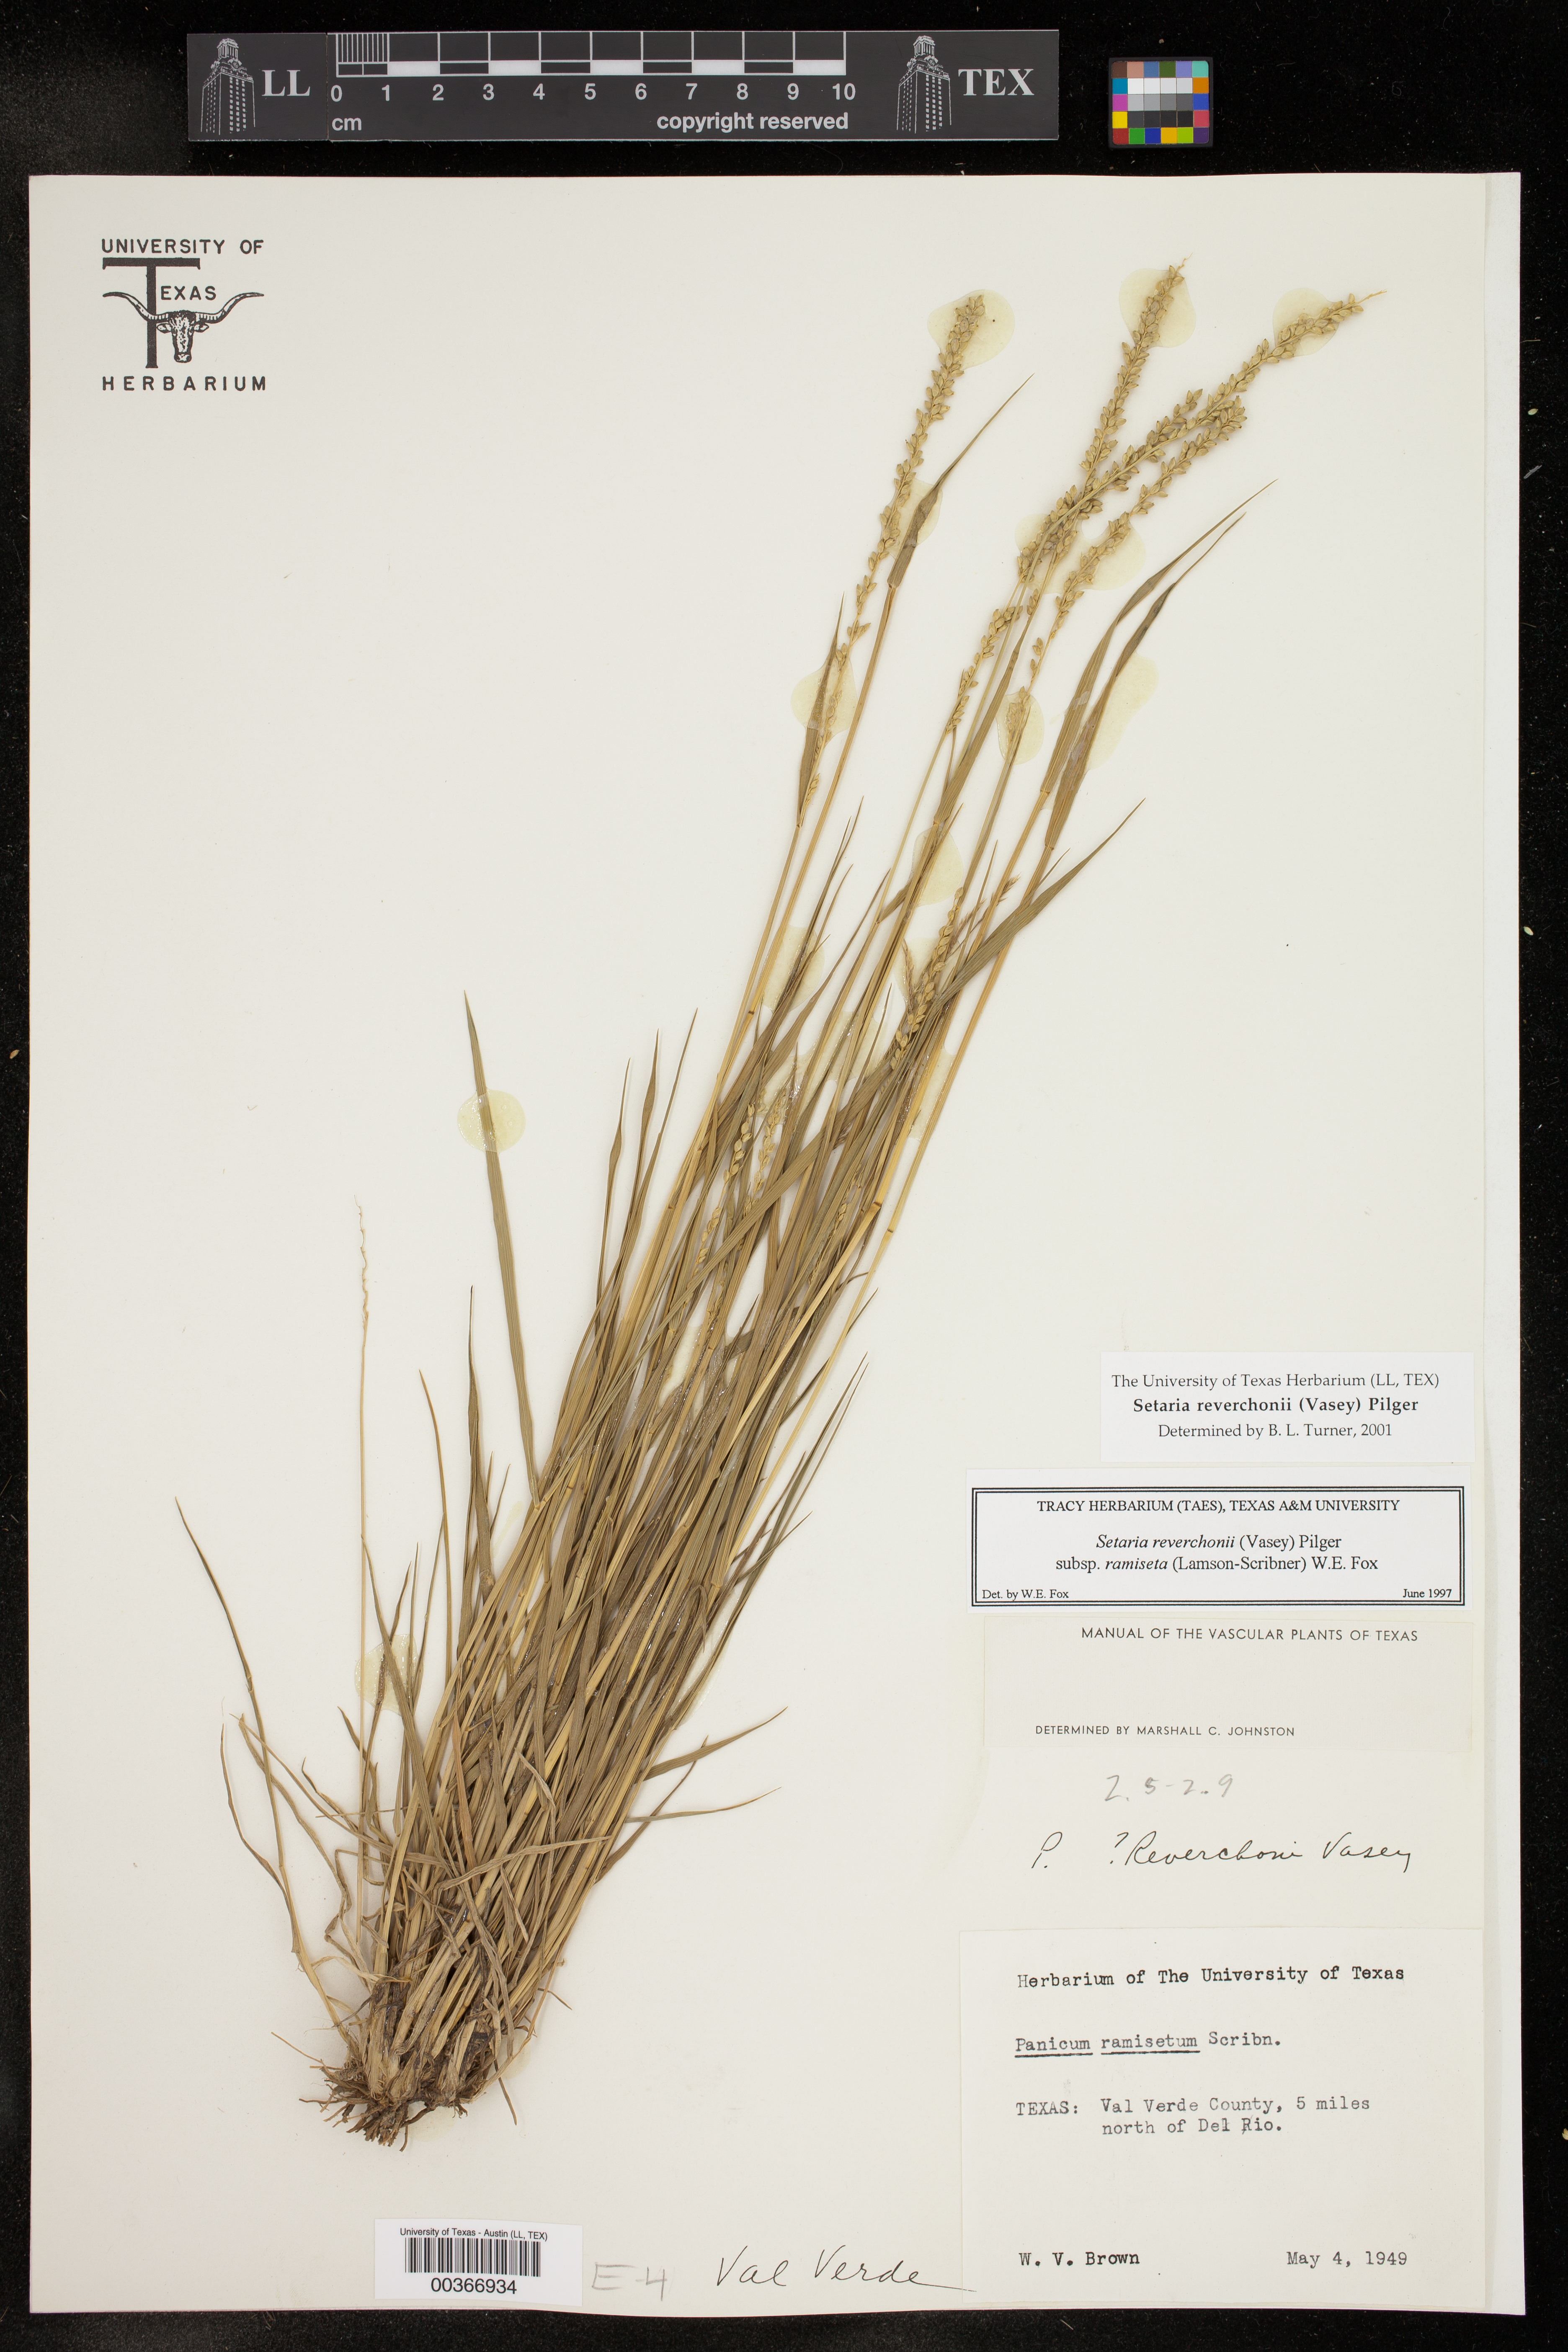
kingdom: Plantae
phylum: Tracheophyta
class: Liliopsida
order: Poales
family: Poaceae
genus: Setaria
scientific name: Setaria reverchonii
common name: Reverchon's bristle grass
